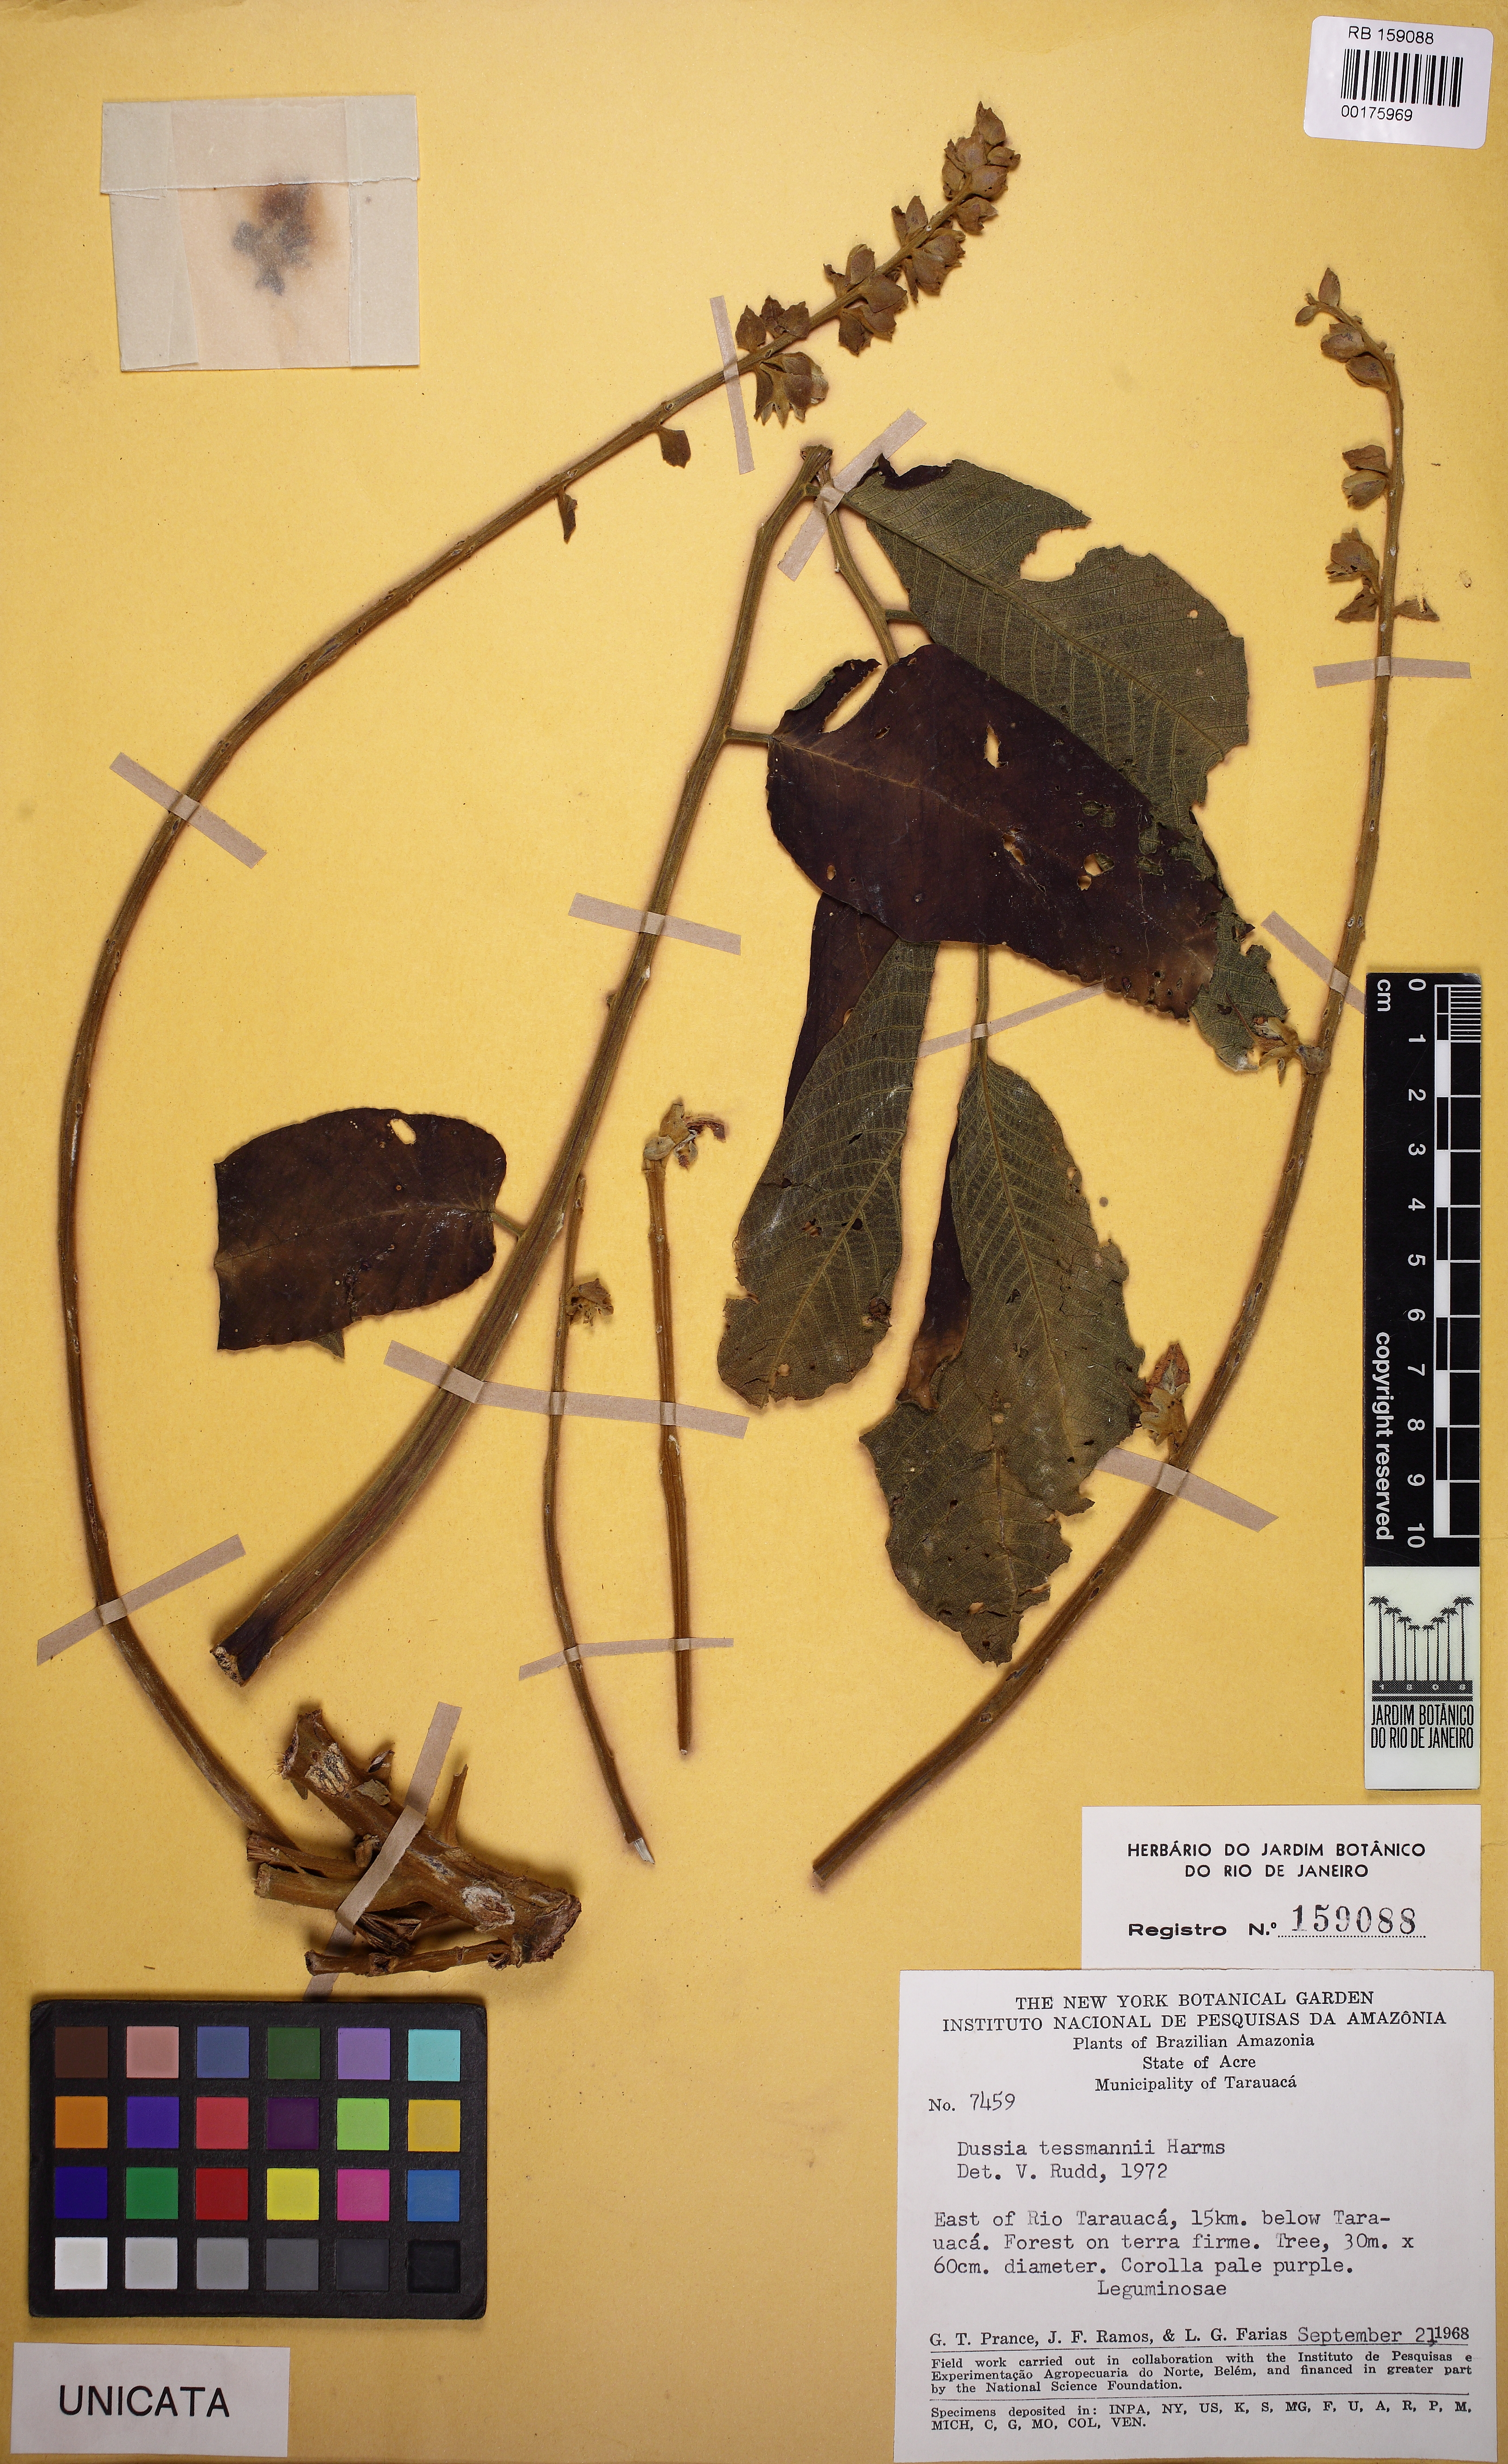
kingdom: Plantae
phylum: Tracheophyta
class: Magnoliopsida
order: Fabales
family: Fabaceae
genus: Dussia
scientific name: Dussia tessmannii
